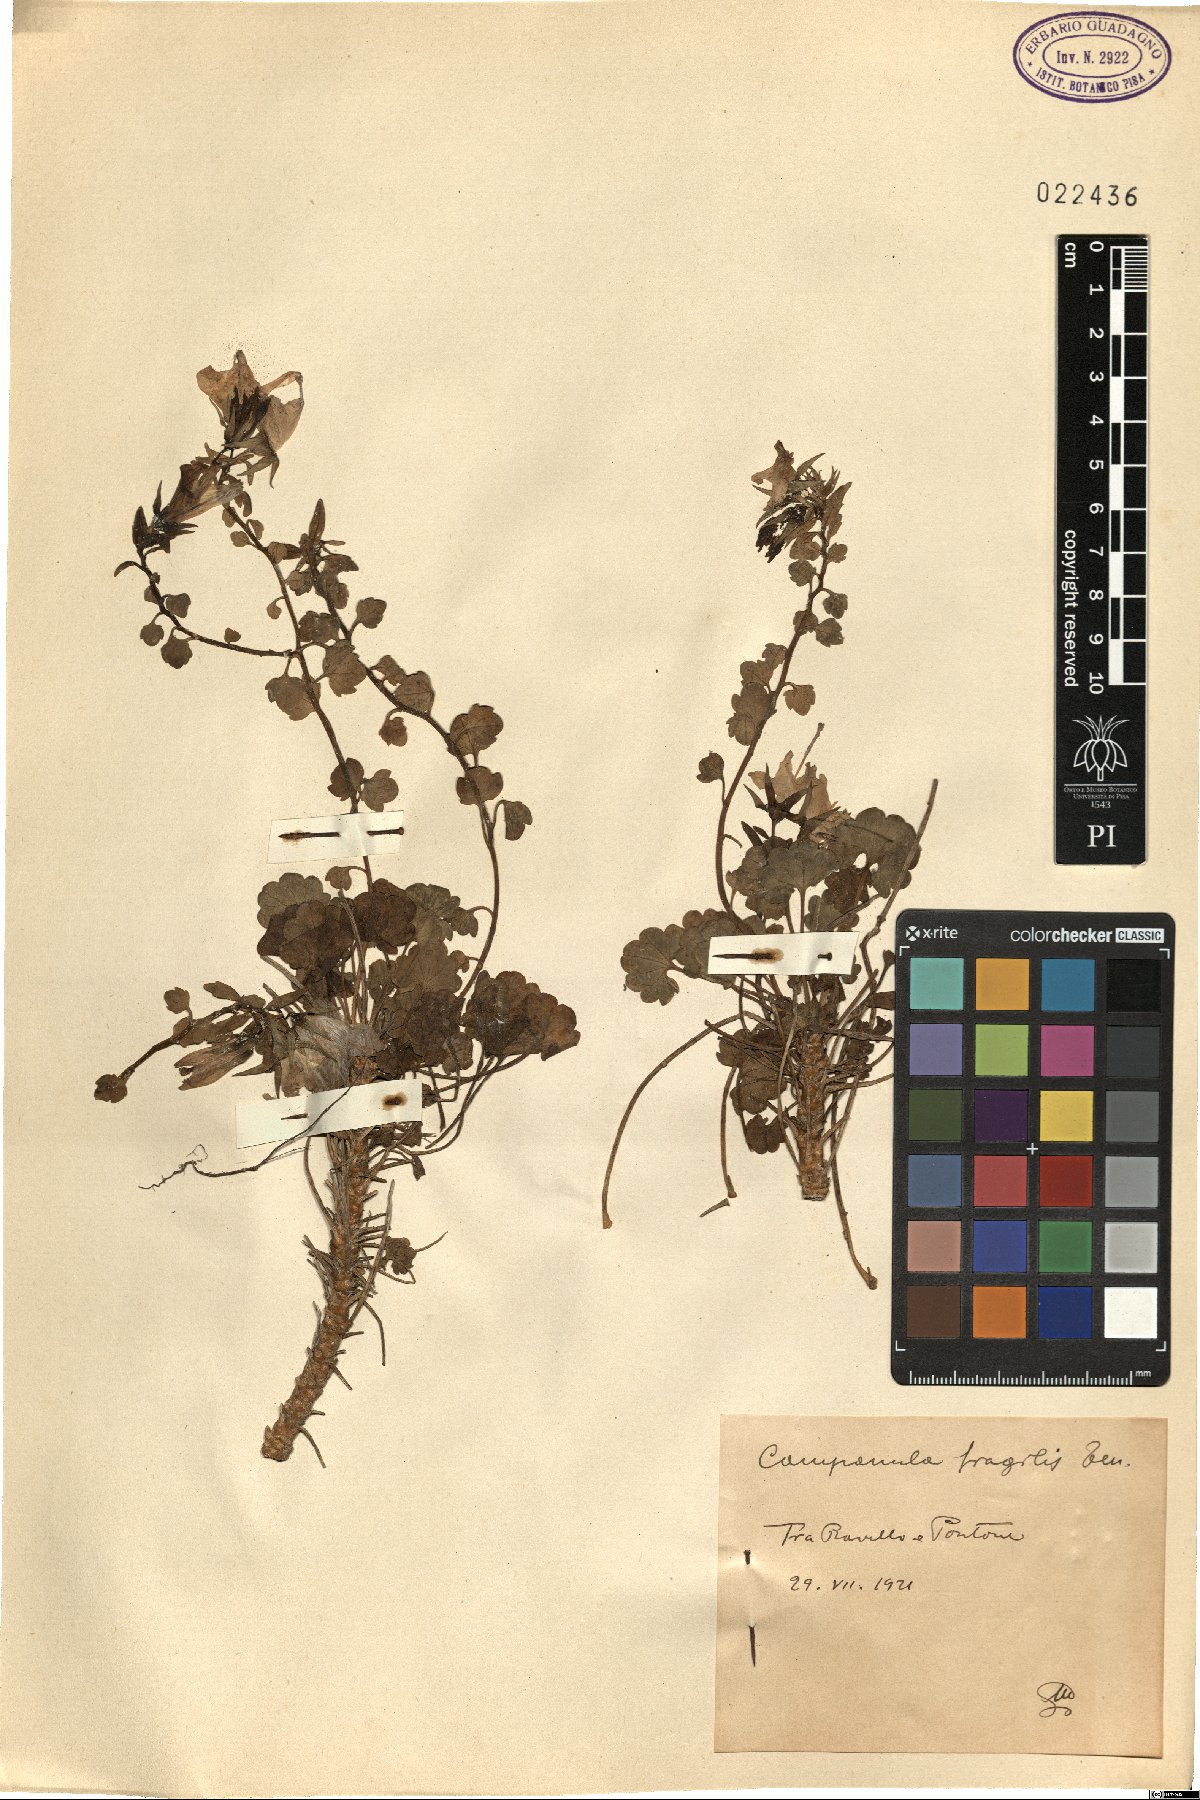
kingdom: Plantae
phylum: Tracheophyta
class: Magnoliopsida
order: Asterales
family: Campanulaceae
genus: Campanula
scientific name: Campanula fragilis
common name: Italian bellflower
